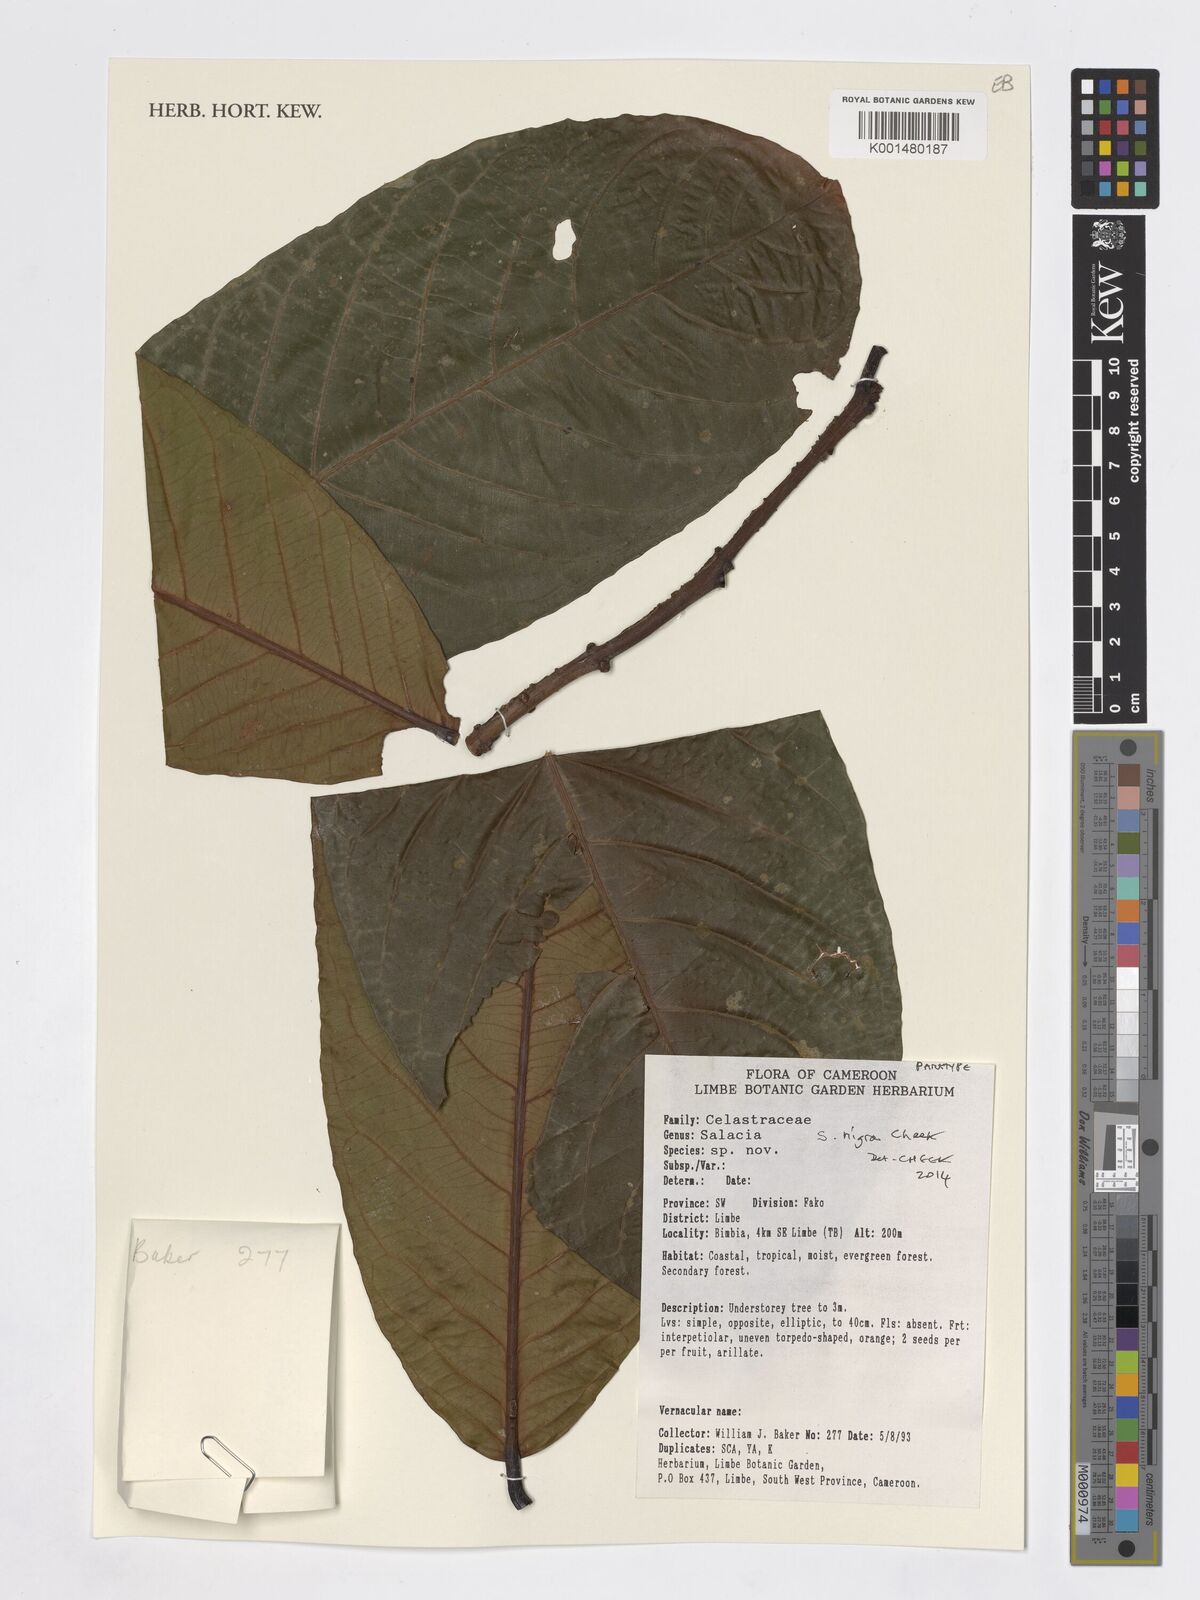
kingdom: Plantae
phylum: Tracheophyta
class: Magnoliopsida
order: Celastrales
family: Celastraceae
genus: Salacia
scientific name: Salacia nigra
